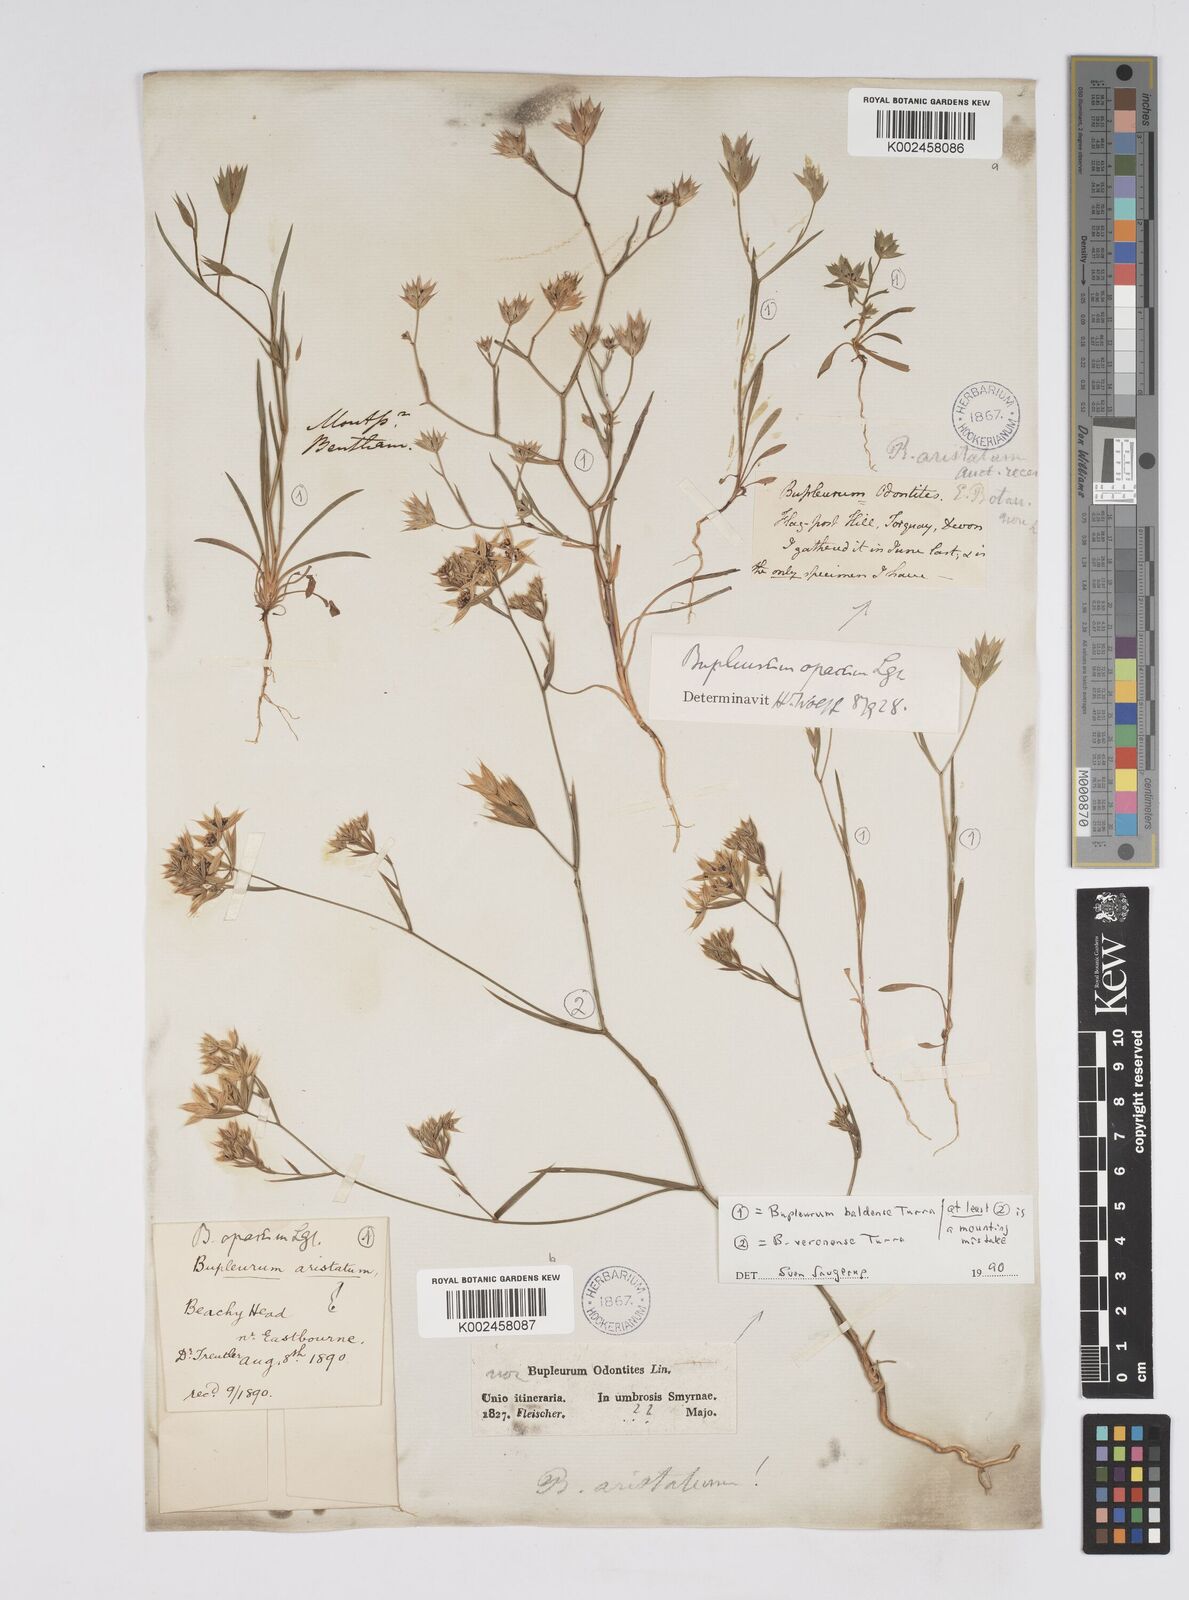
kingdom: Plantae
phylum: Tracheophyta
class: Magnoliopsida
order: Apiales
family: Apiaceae
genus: Bupleurum
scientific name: Bupleurum baldense
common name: Small hare's-ear
